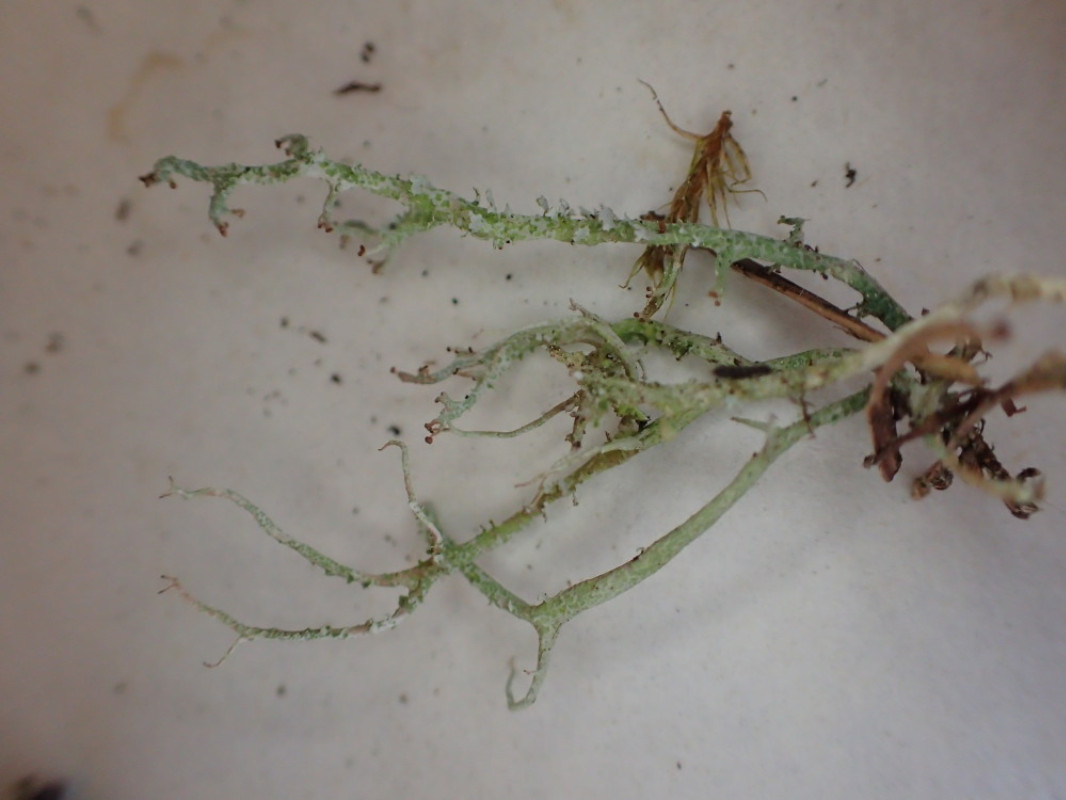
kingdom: Fungi
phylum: Ascomycota
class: Lecanoromycetes
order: Lecanorales
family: Cladoniaceae
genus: Cladonia
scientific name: Cladonia scabriuscula
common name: ru bægerlav
